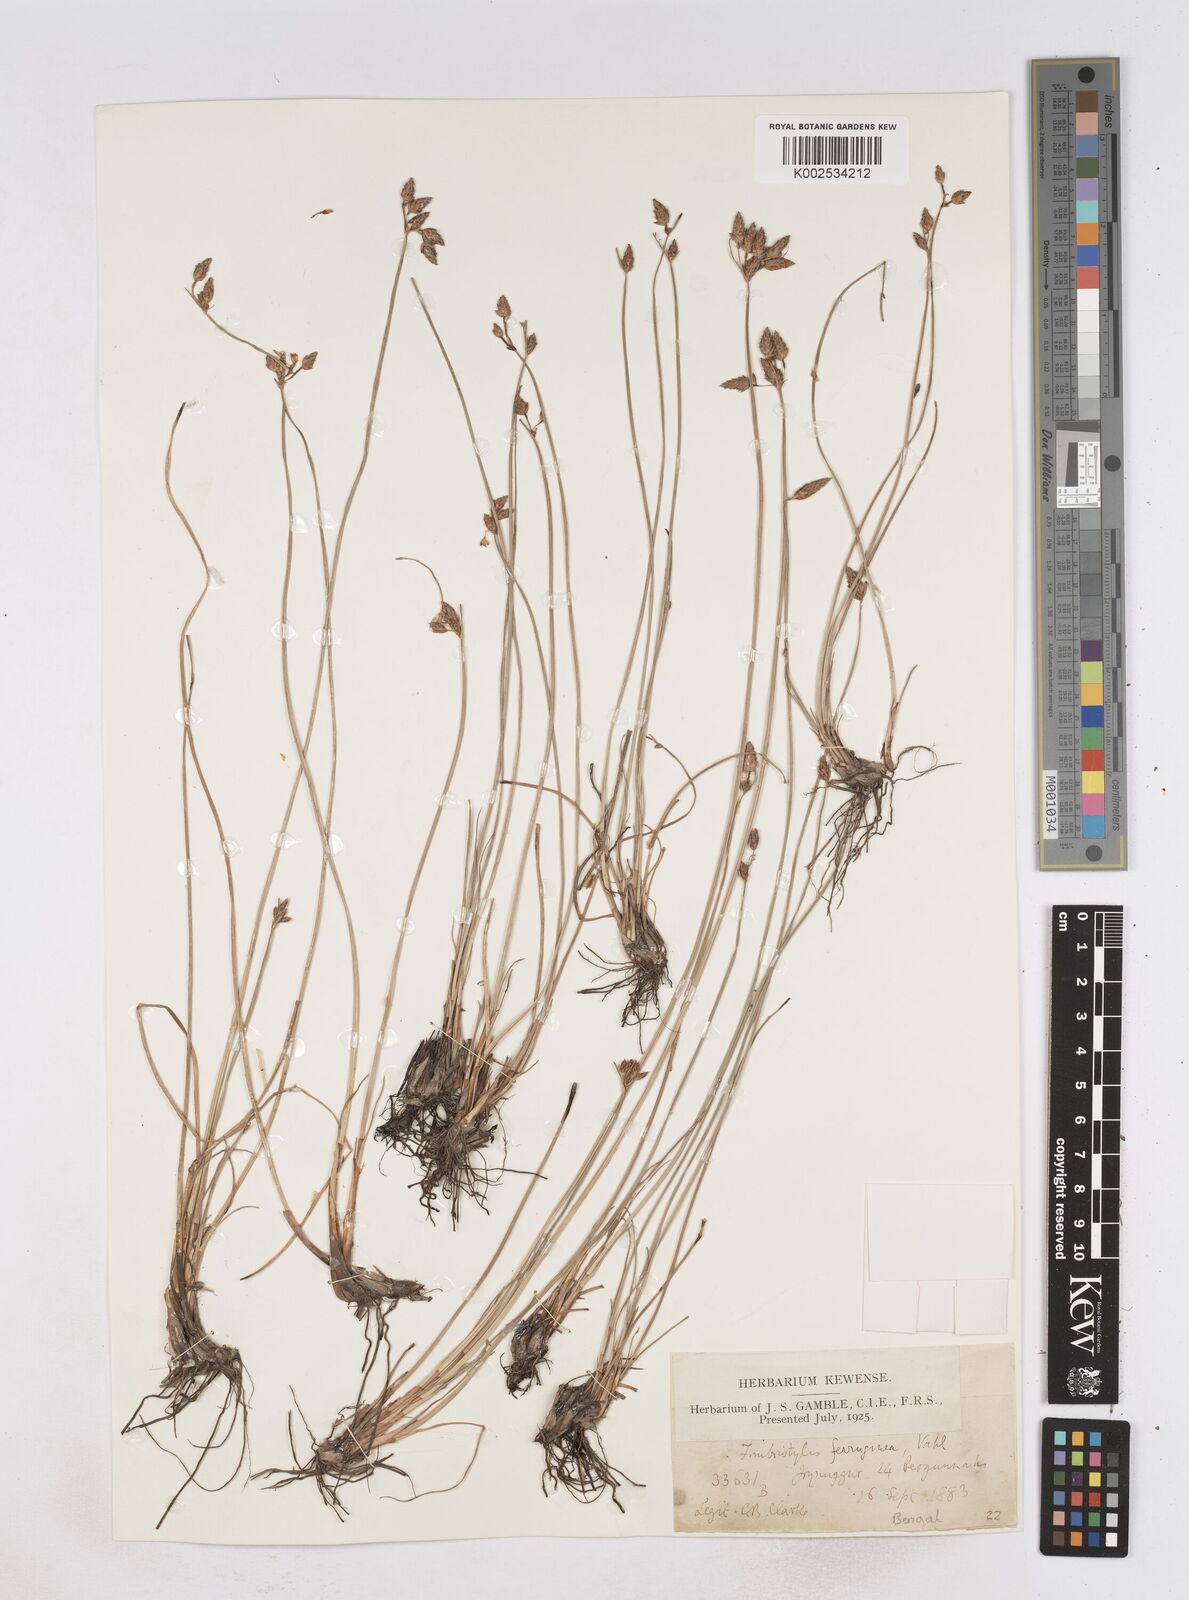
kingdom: Plantae
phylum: Tracheophyta
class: Liliopsida
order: Poales
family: Cyperaceae
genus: Fimbristylis
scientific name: Fimbristylis ferruginea
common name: West indian fimbry
